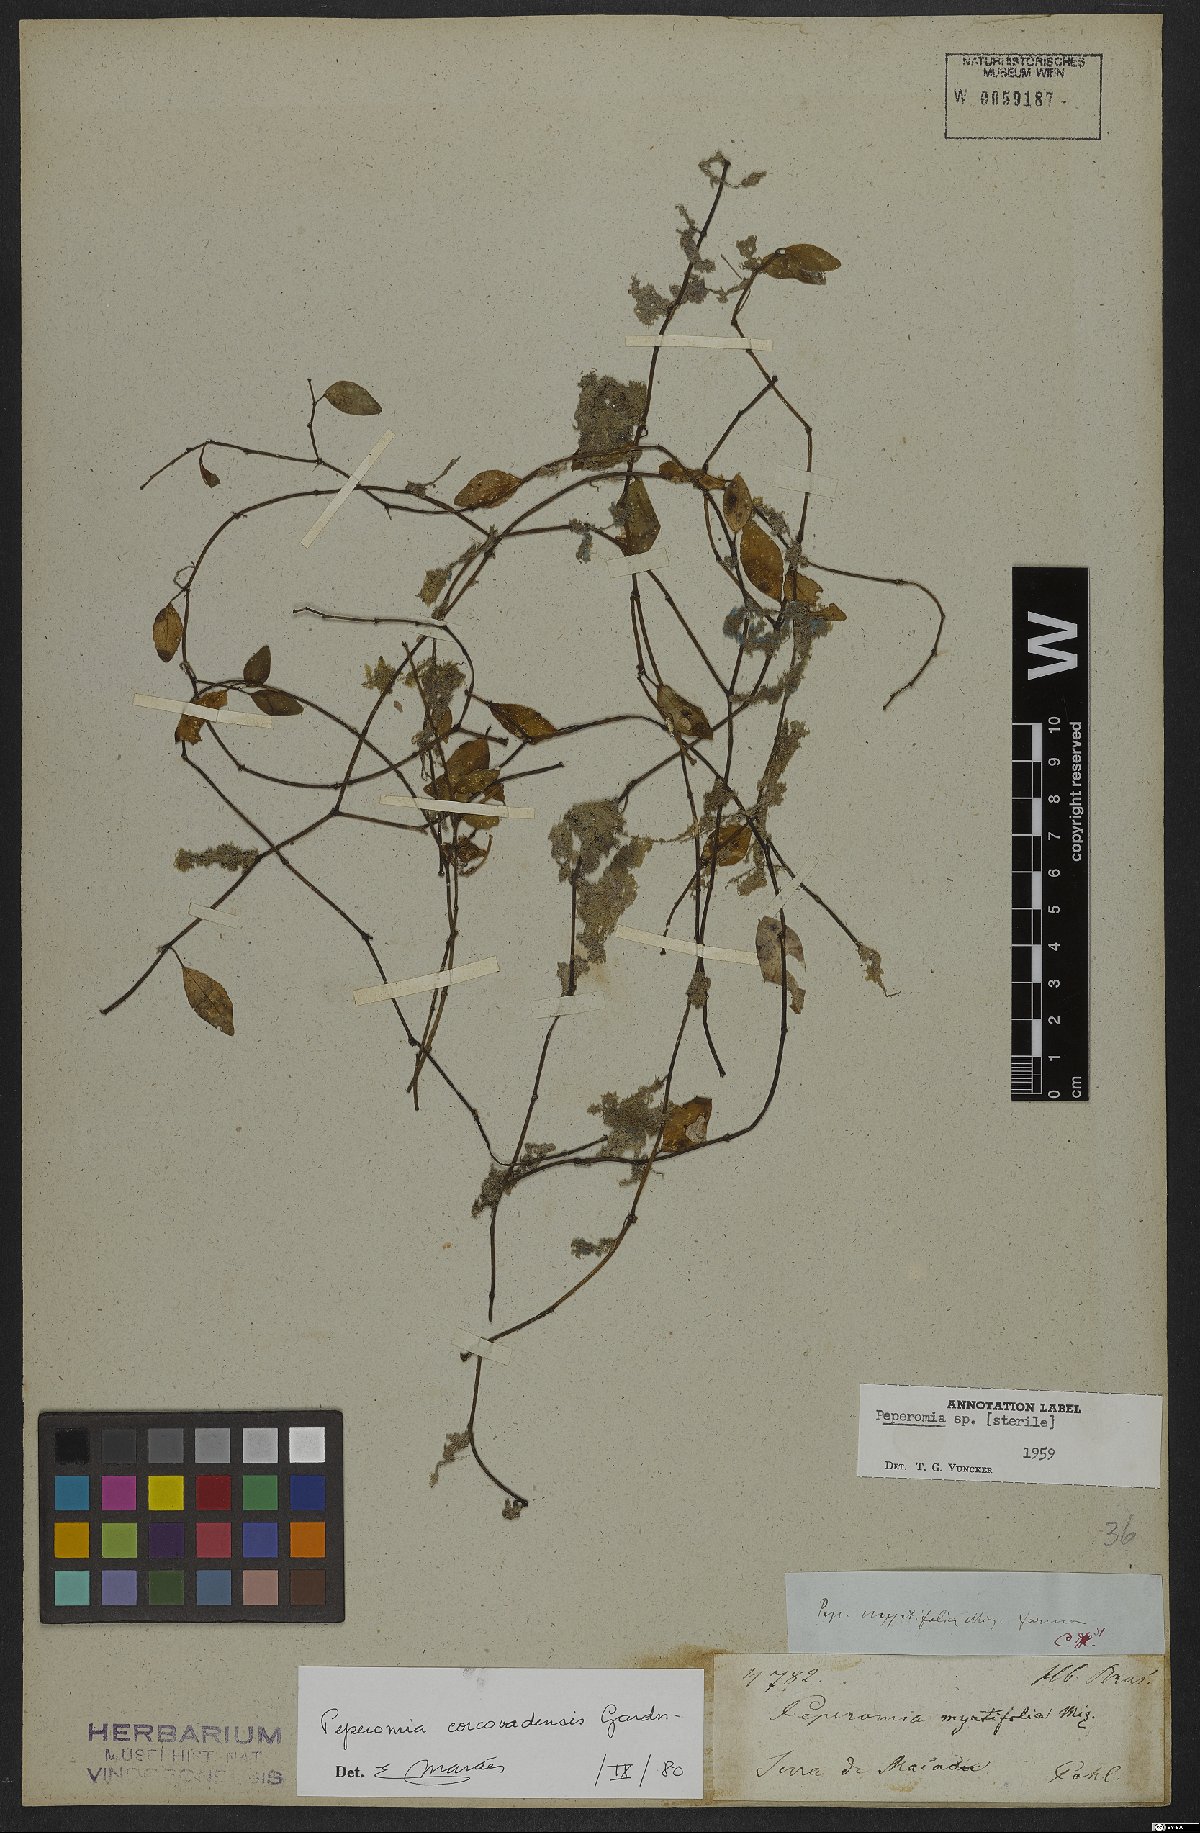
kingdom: Plantae
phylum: Tracheophyta
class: Magnoliopsida
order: Piperales
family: Piperaceae
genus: Peperomia
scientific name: Peperomia corcovadensis
